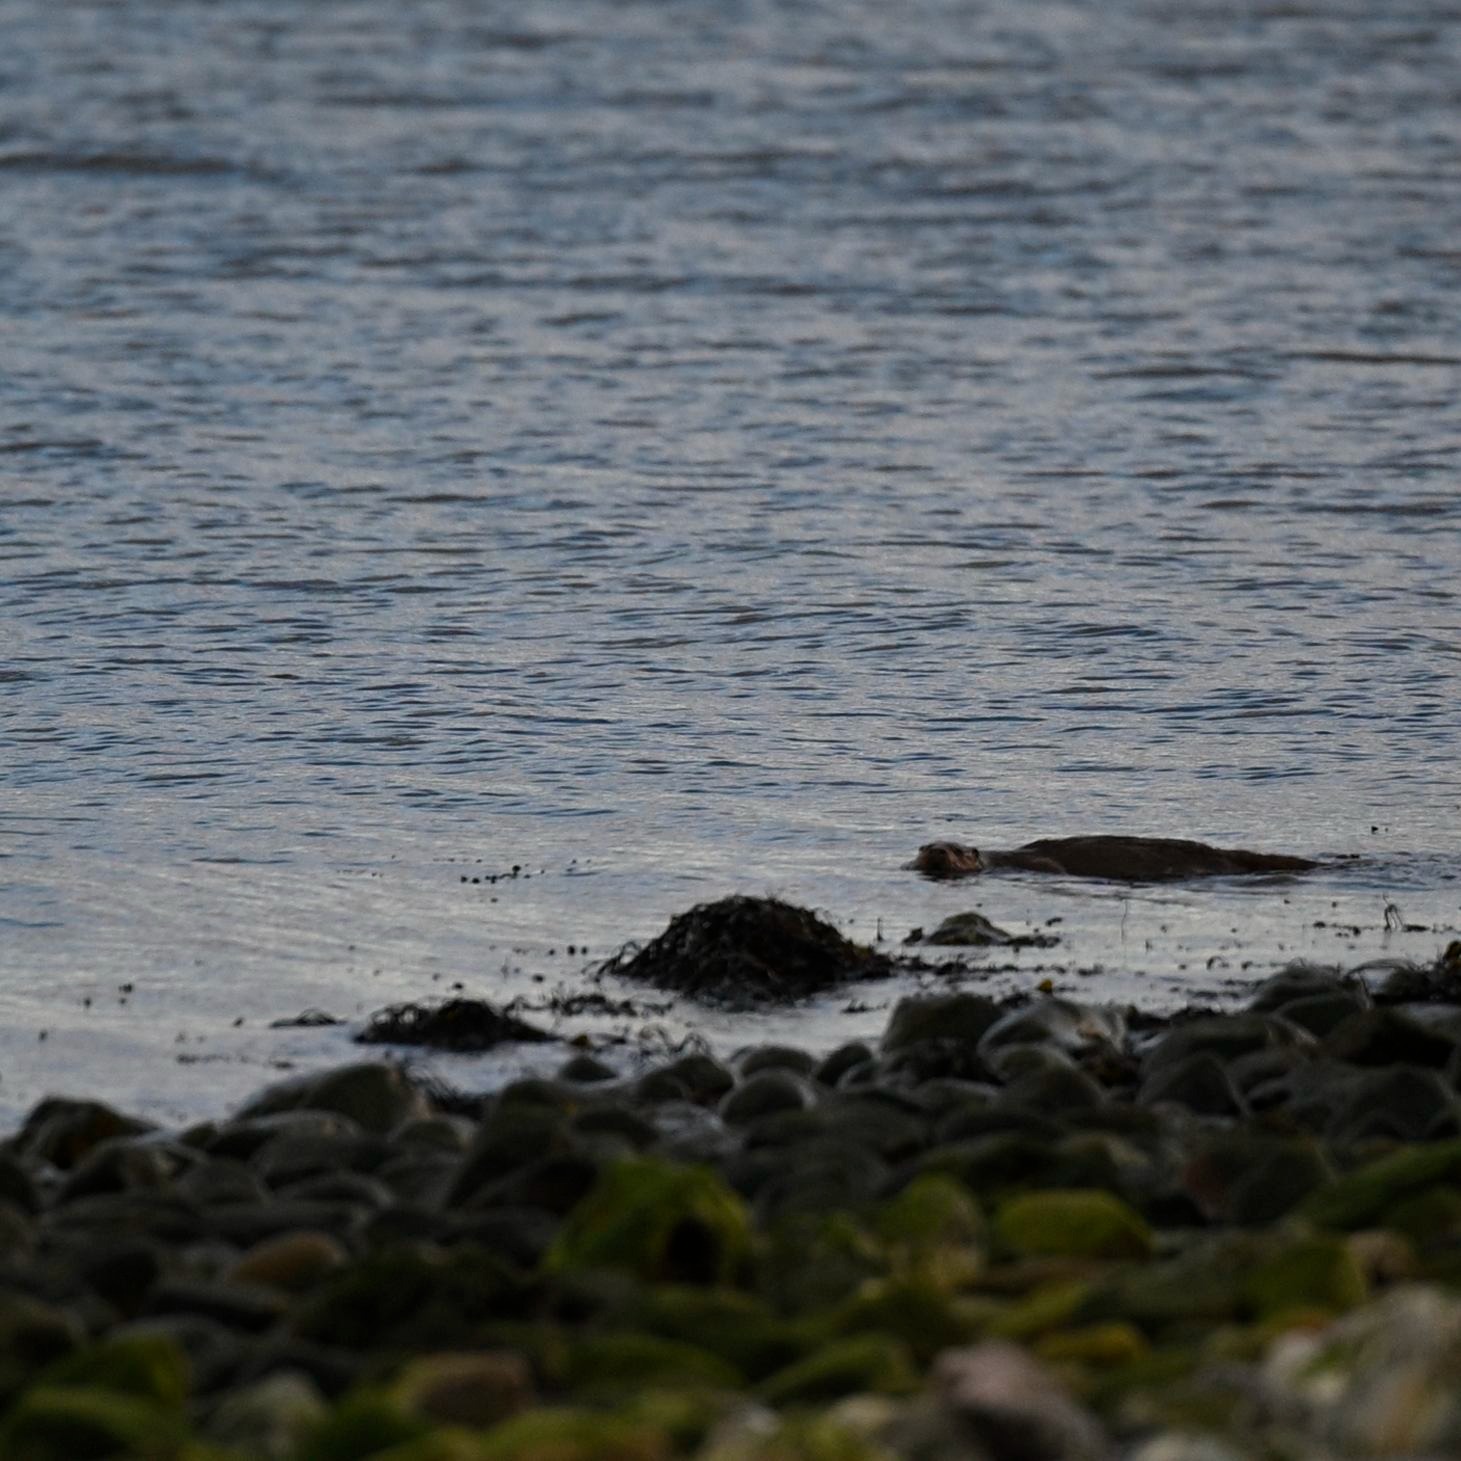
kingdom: Animalia
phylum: Chordata
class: Mammalia
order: Carnivora
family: Mustelidae
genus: Lutra
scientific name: Lutra lutra
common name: Odder
